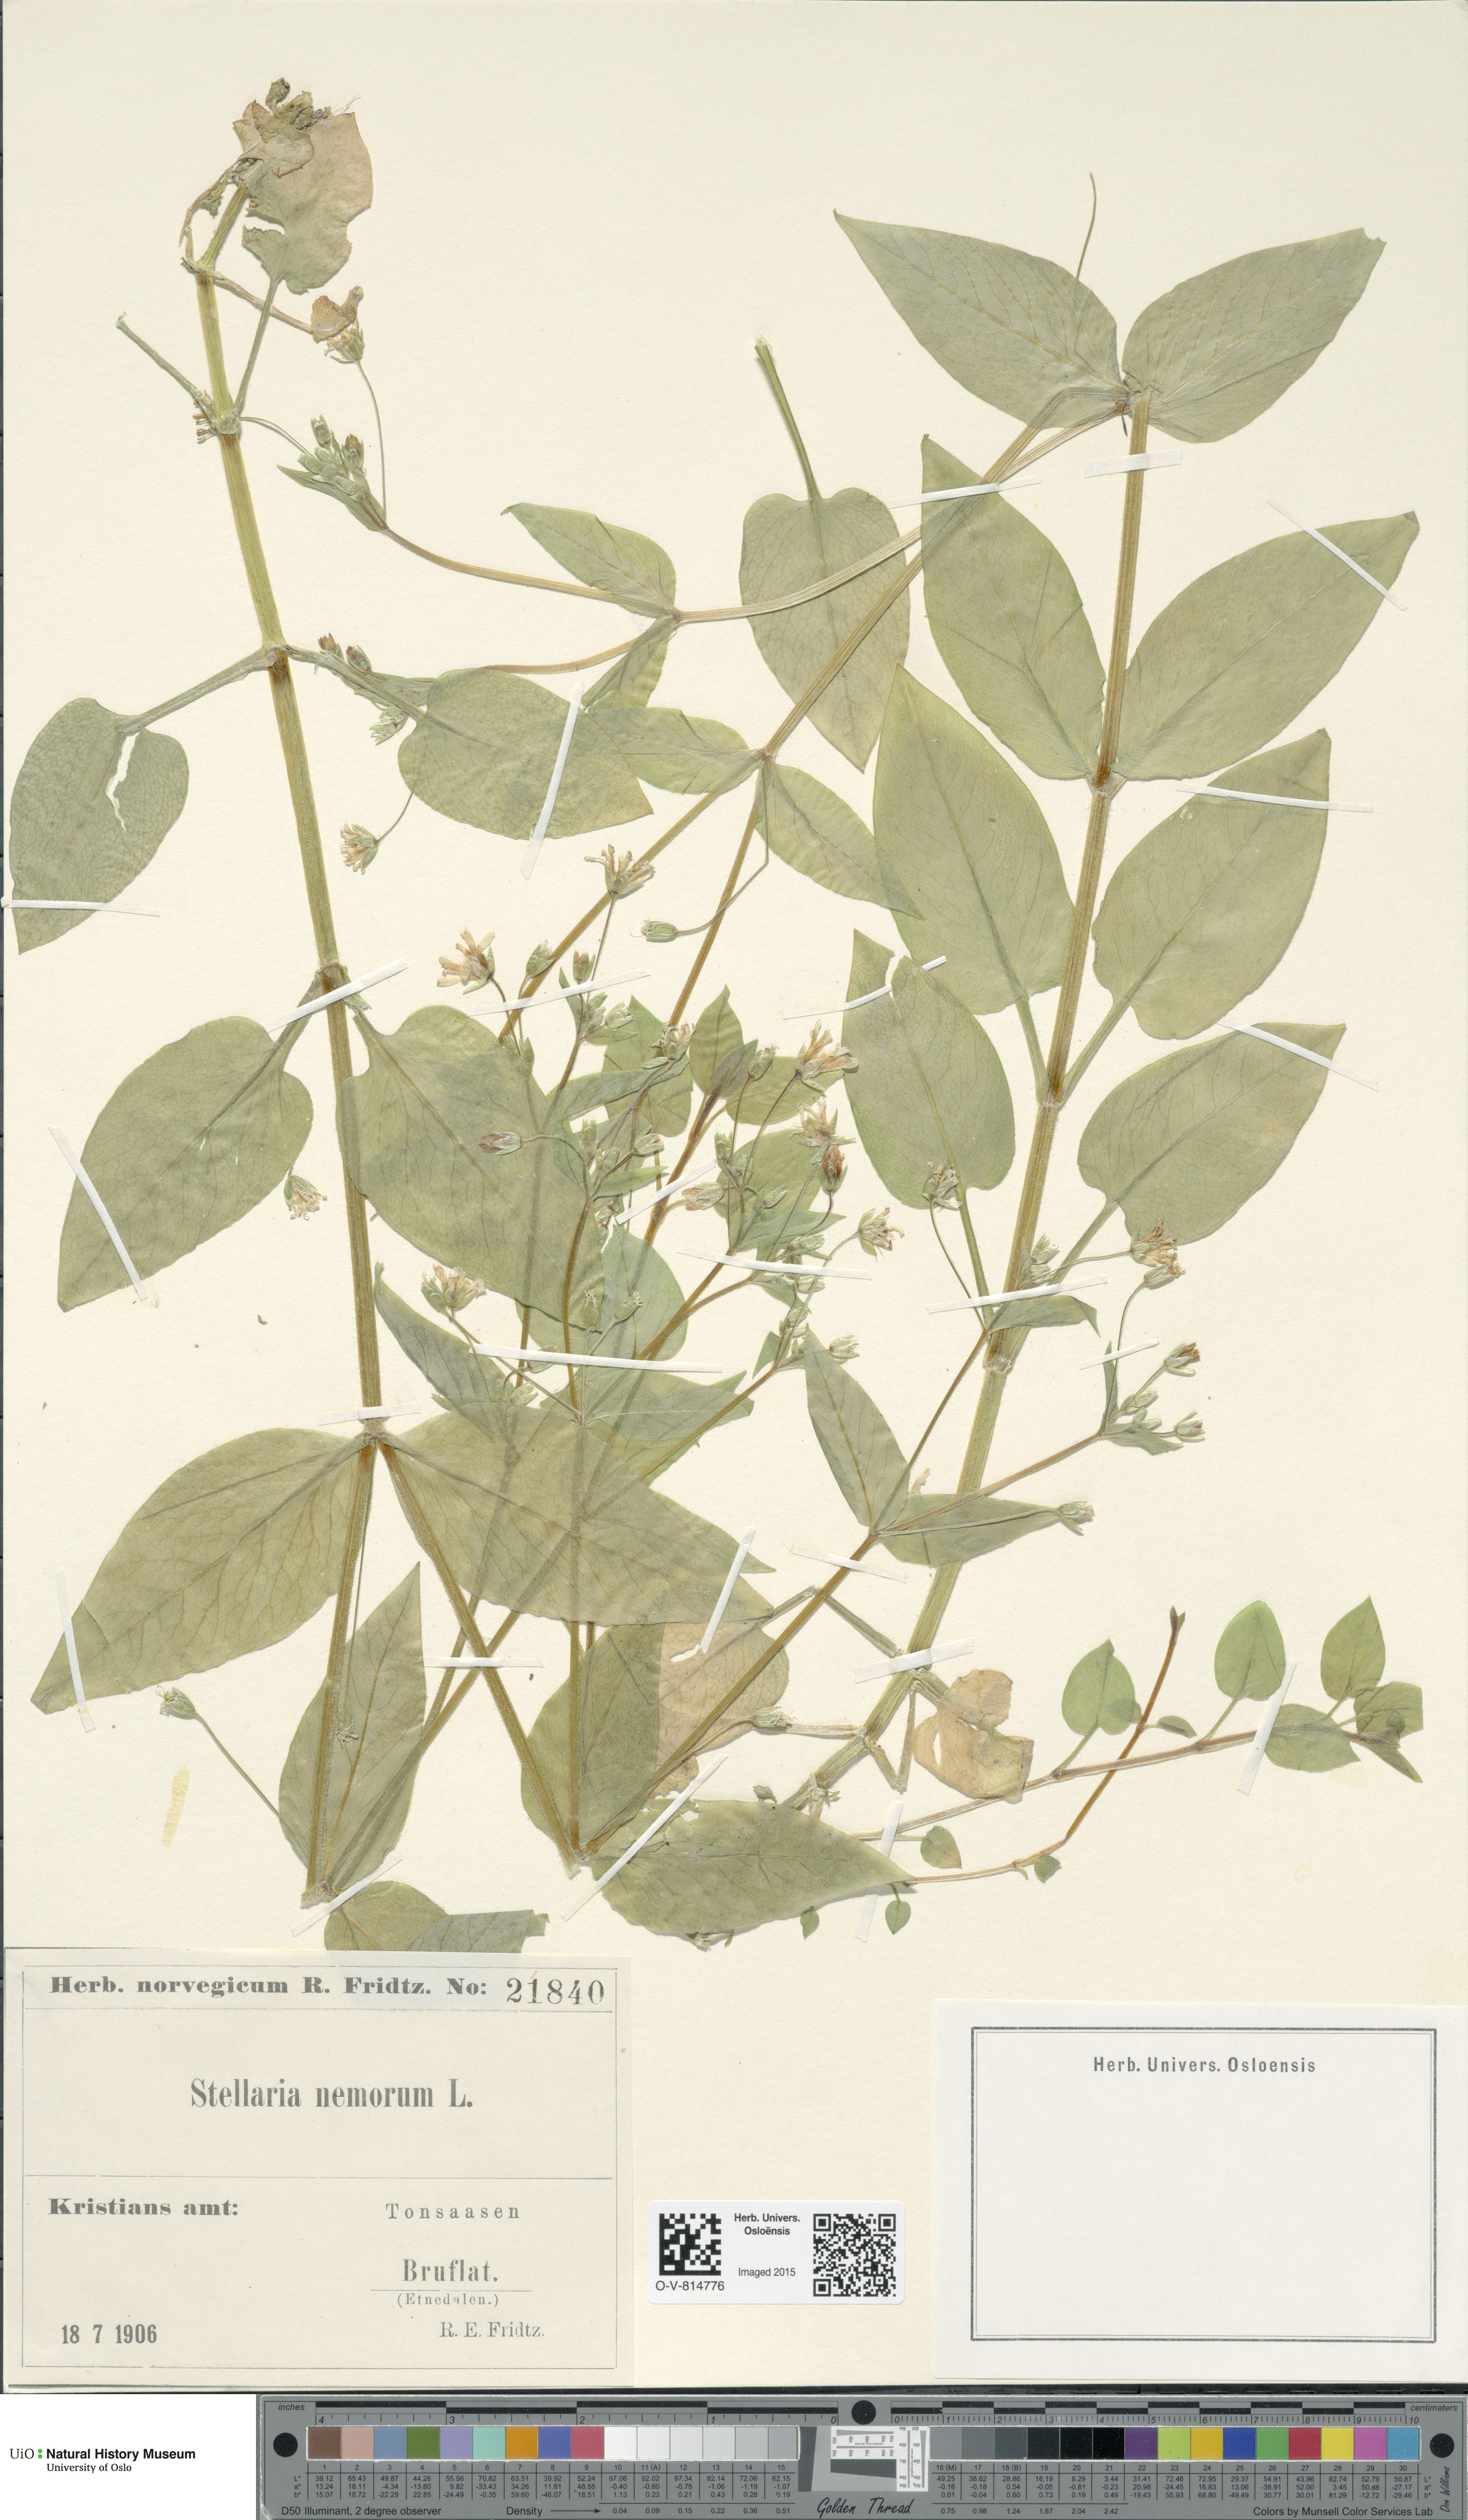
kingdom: Plantae
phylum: Tracheophyta
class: Magnoliopsida
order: Caryophyllales
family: Caryophyllaceae
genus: Stellaria
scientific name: Stellaria nemorum
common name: Wood stitchwort
